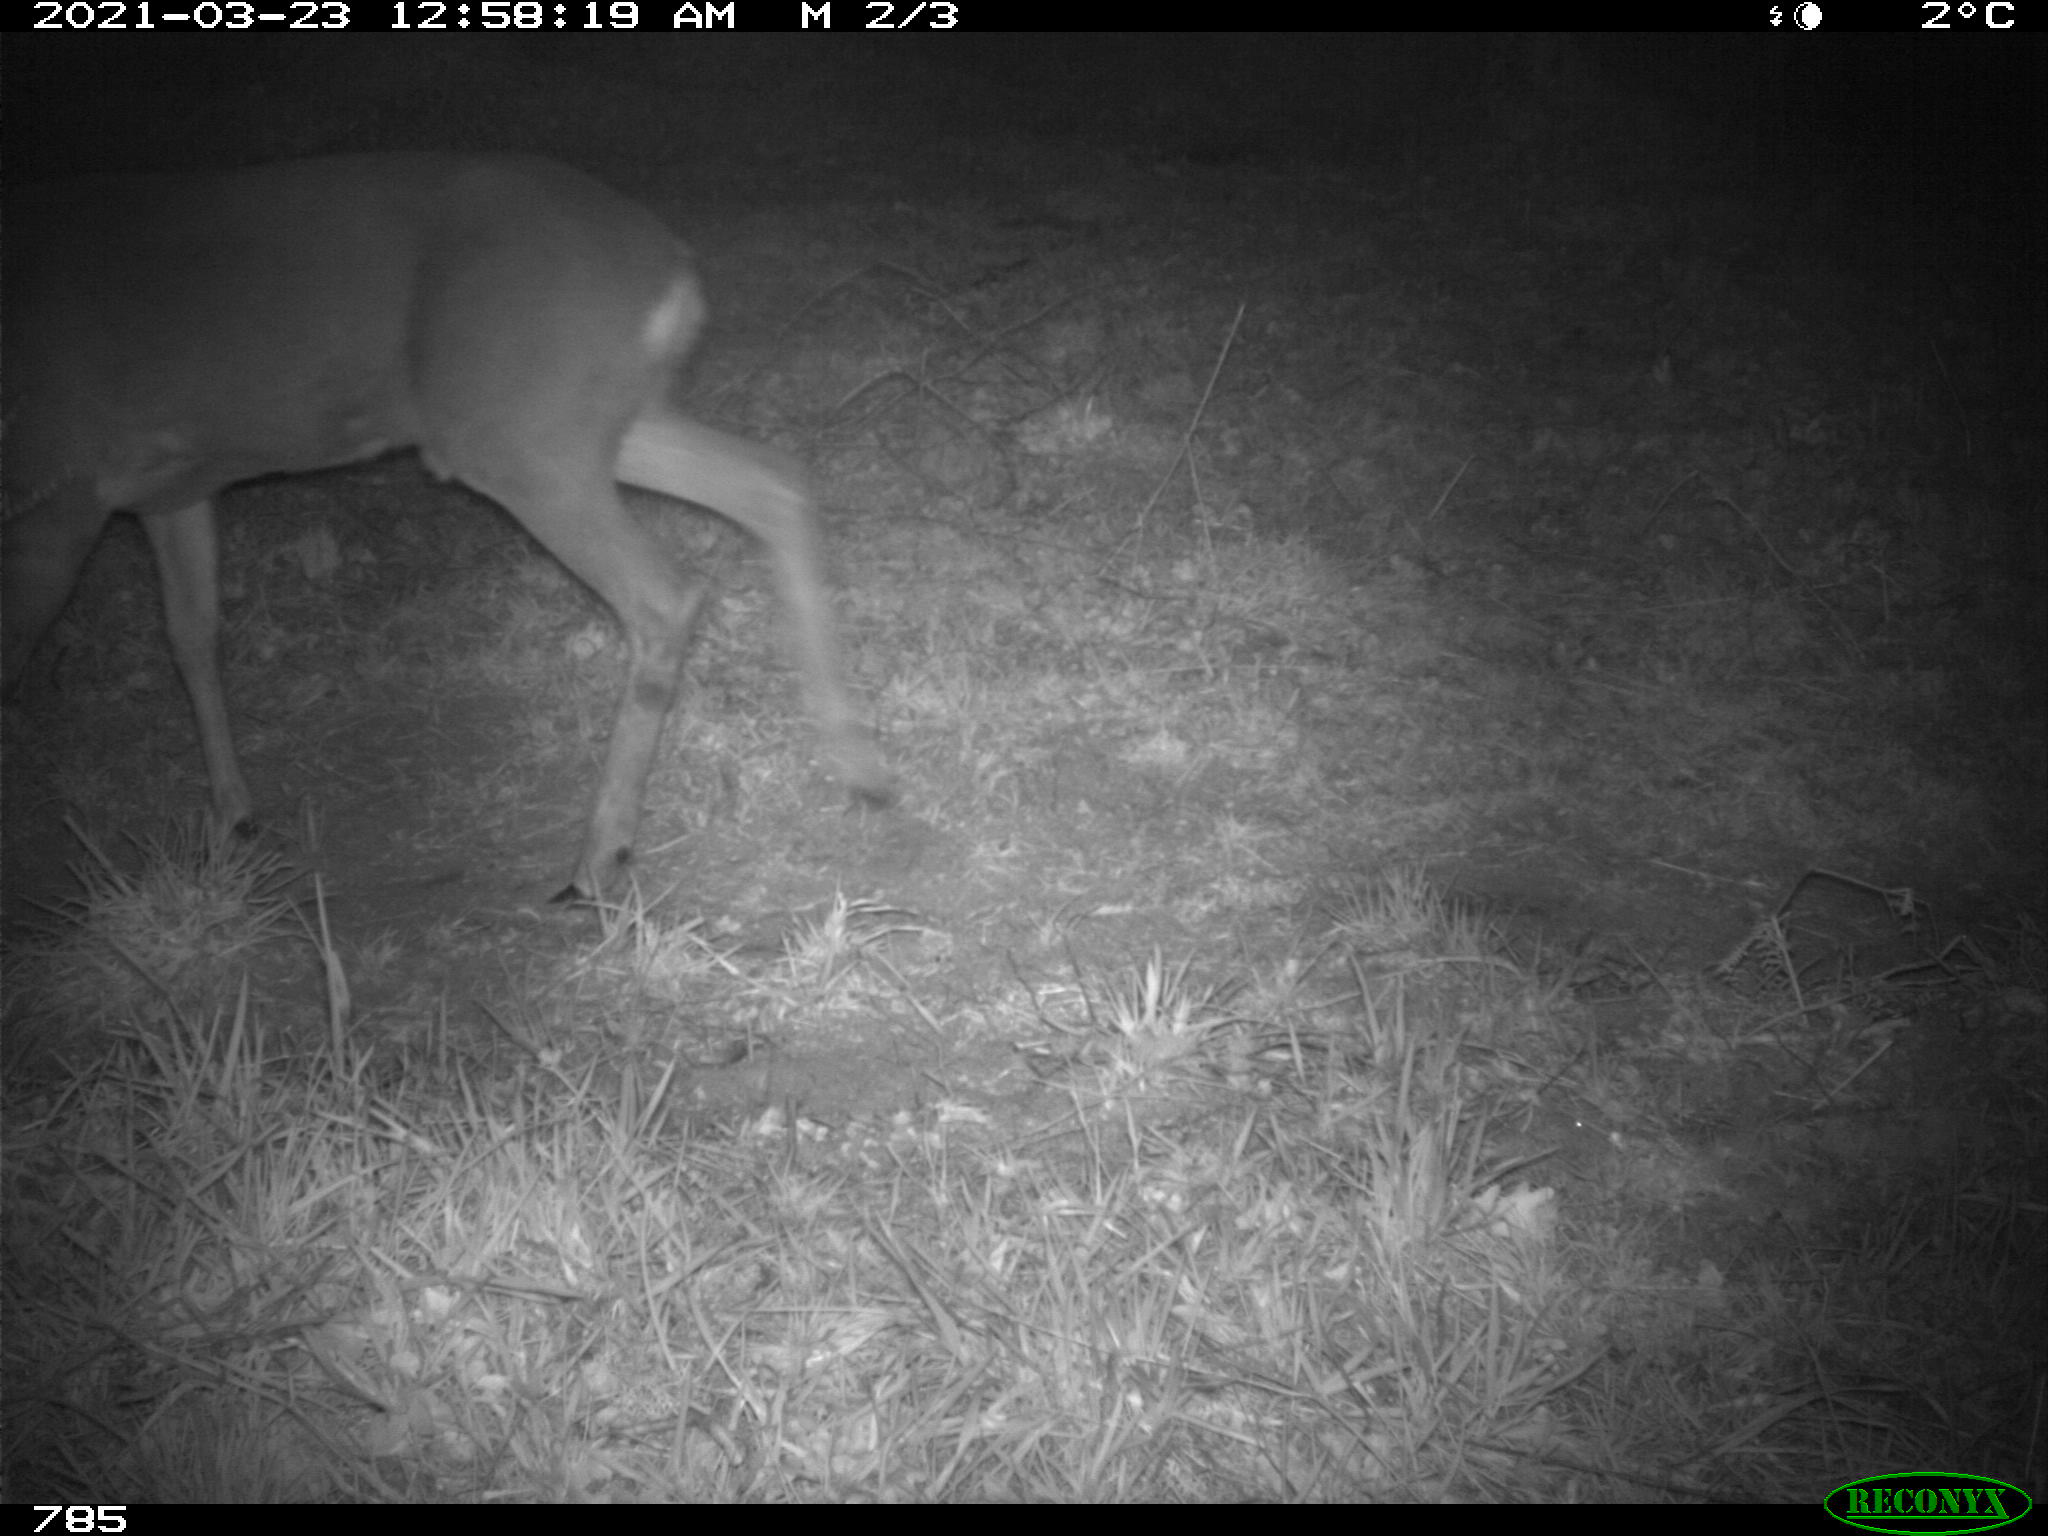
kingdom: Animalia
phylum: Chordata
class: Mammalia
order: Artiodactyla
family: Cervidae
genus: Capreolus
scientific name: Capreolus capreolus
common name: Western roe deer
